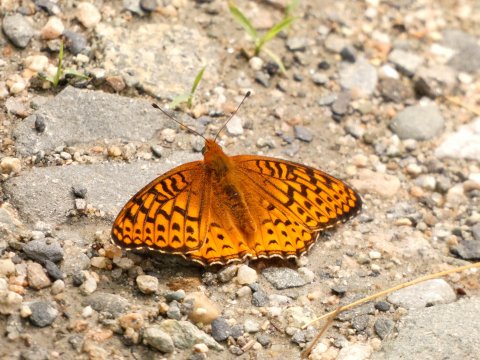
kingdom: Animalia
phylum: Arthropoda
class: Insecta
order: Lepidoptera
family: Nymphalidae
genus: Speyeria
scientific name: Speyeria atlantis
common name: Atlantis Fritillary
